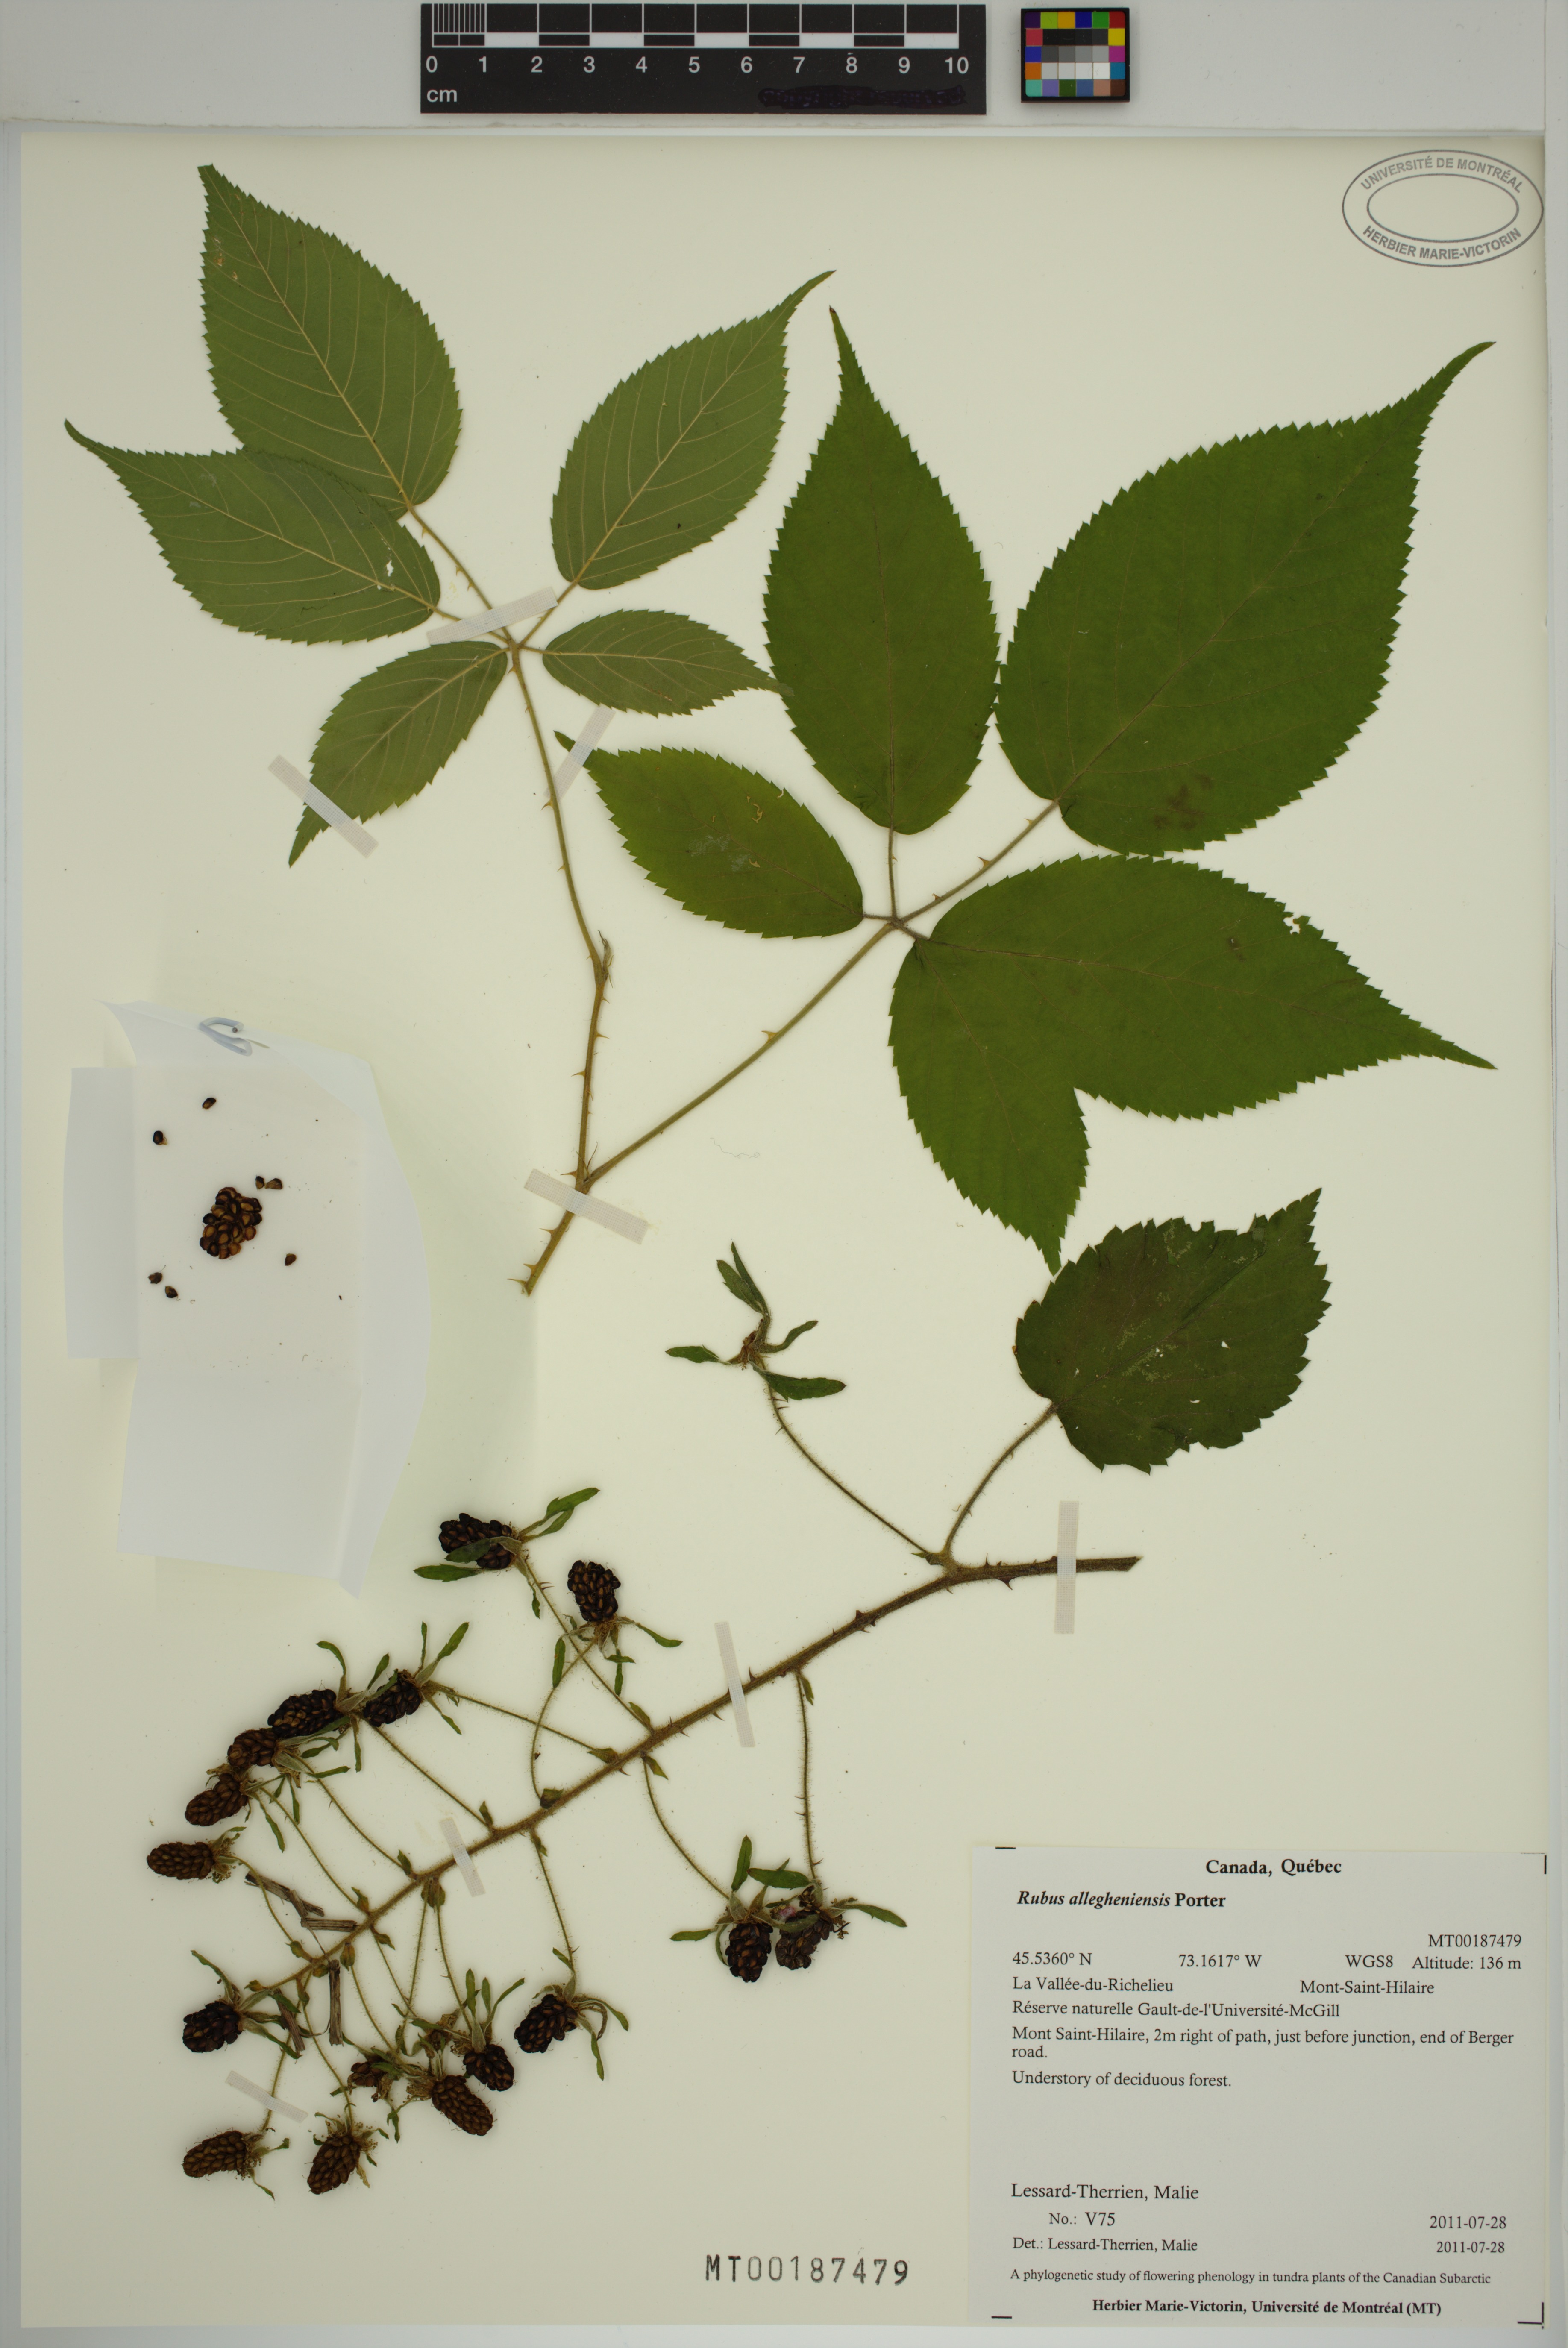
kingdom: Plantae
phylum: Tracheophyta
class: Magnoliopsida
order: Rosales
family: Rosaceae
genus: Rubus
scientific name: Rubus allegheniensis
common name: Allegheny blackberry
